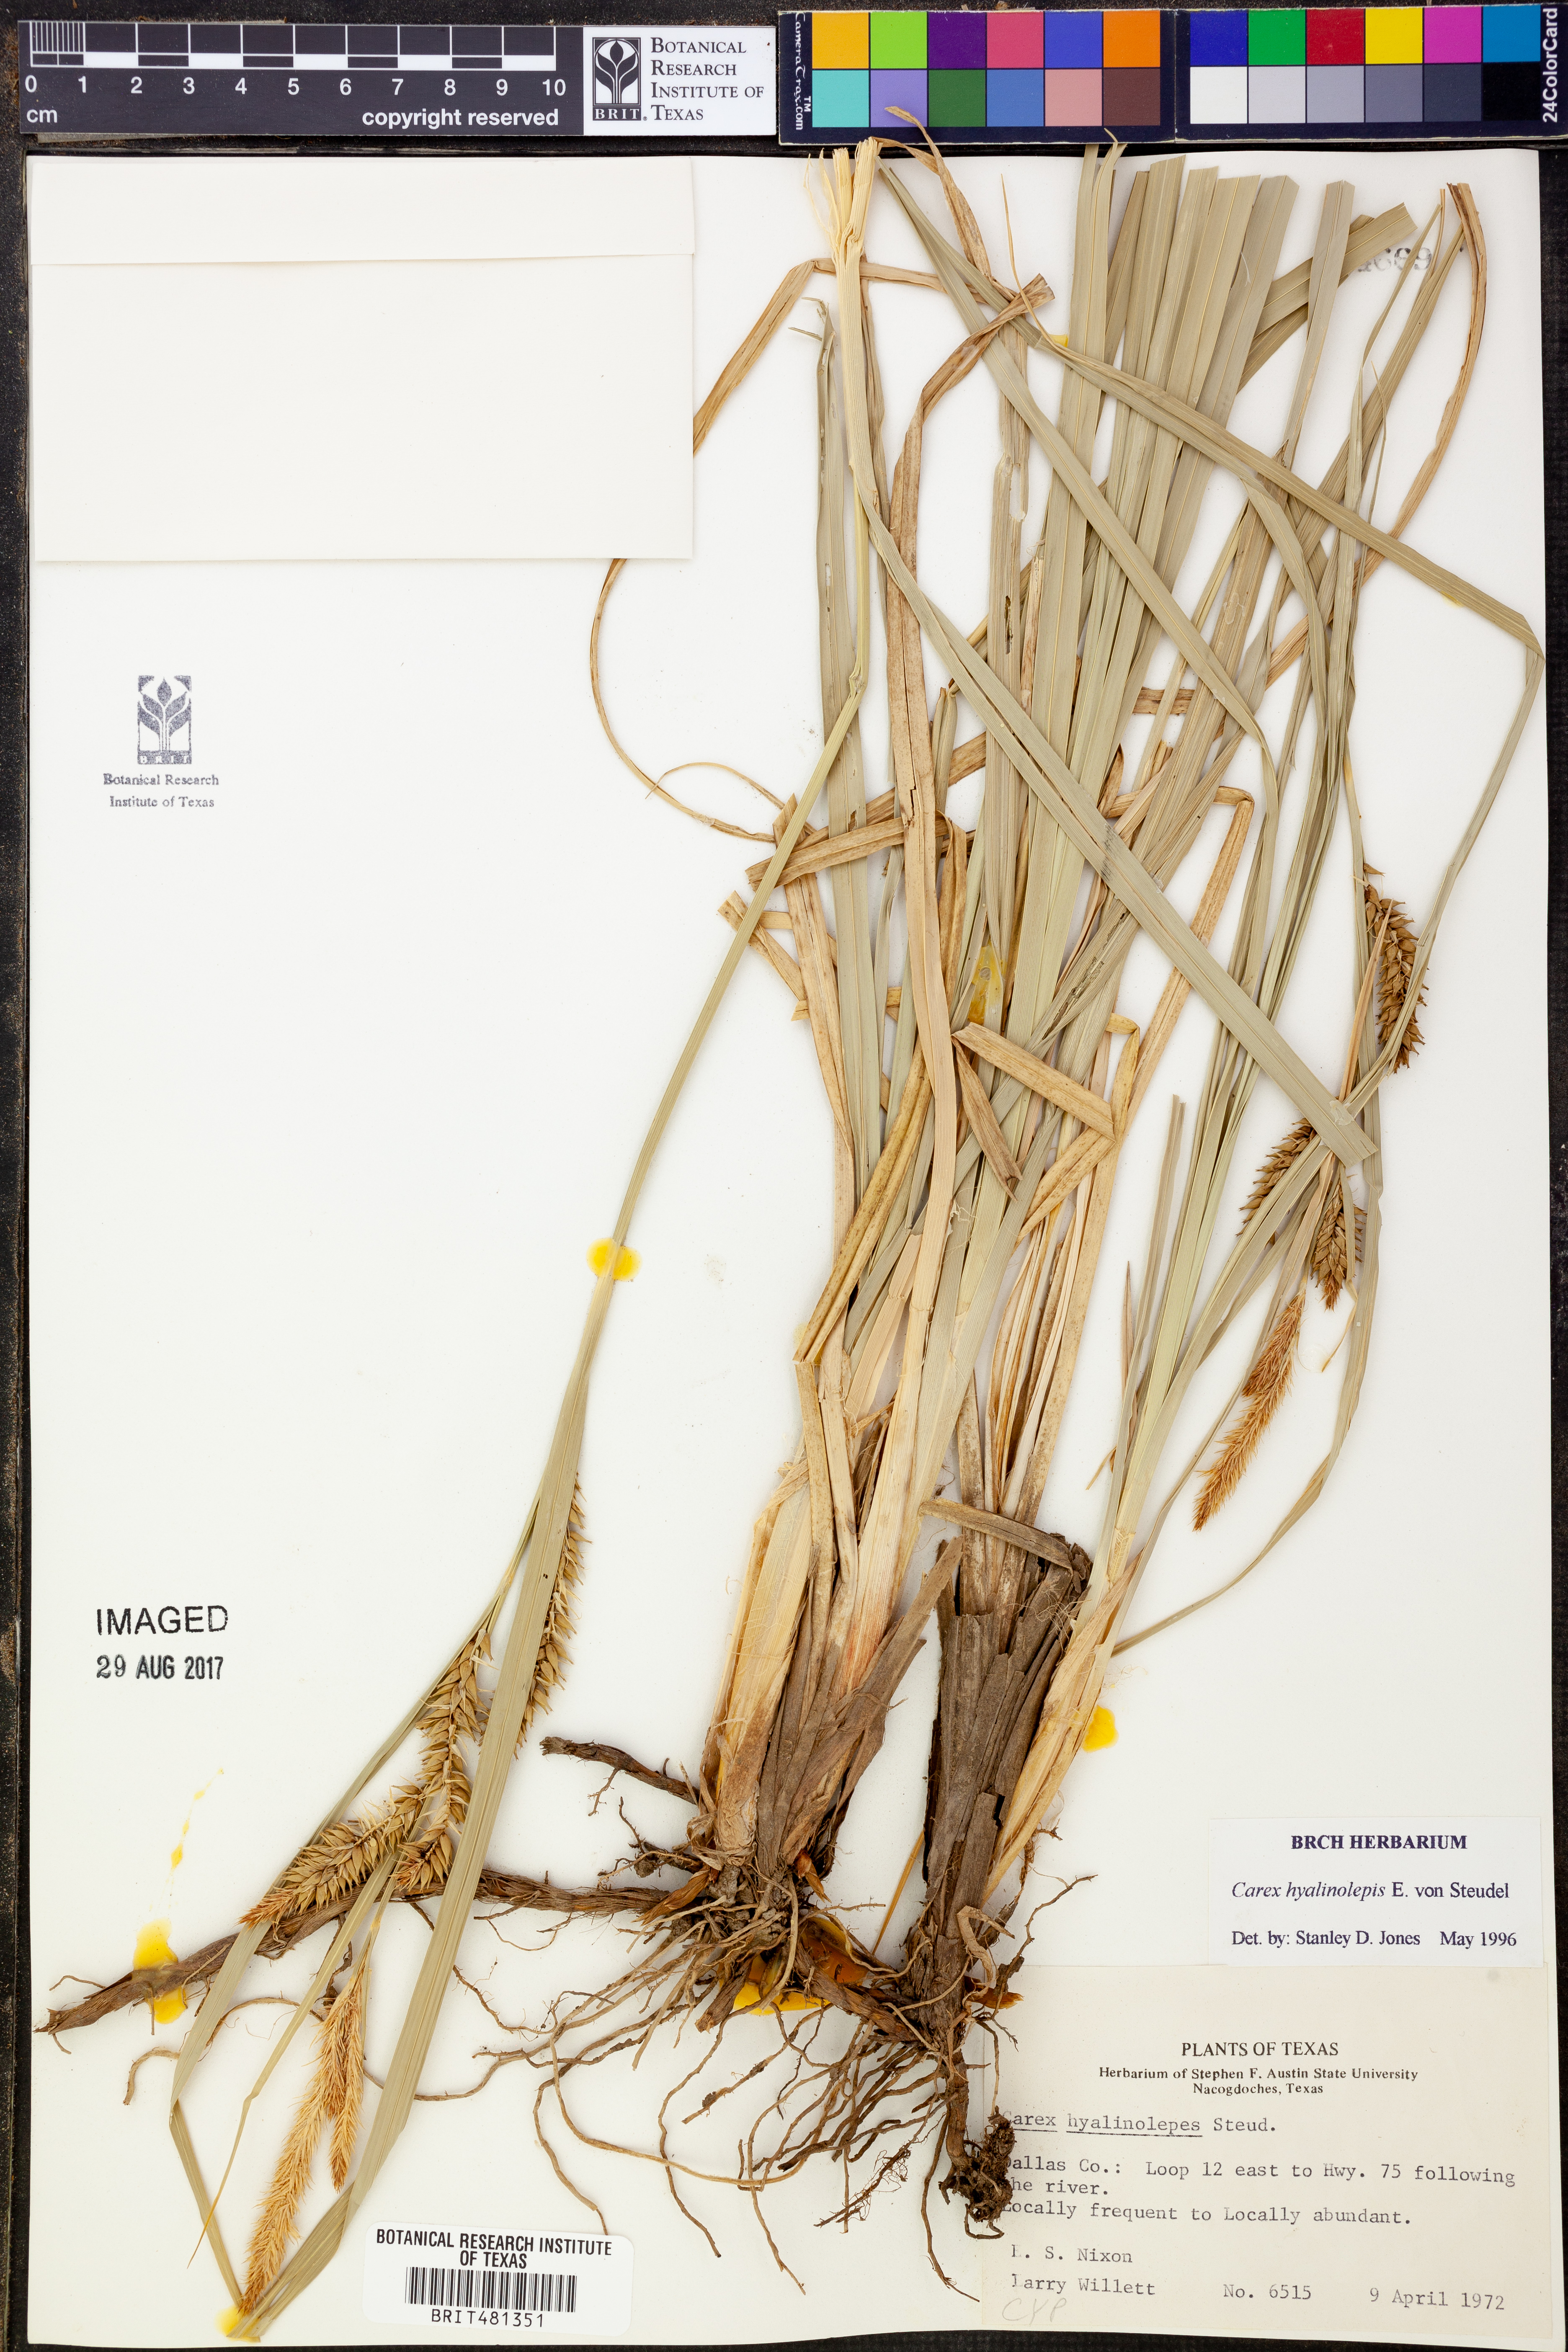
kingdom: Plantae
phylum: Tracheophyta
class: Liliopsida
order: Poales
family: Cyperaceae
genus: Carex
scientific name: Carex hyalinolepis
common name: Shoreline sedge
